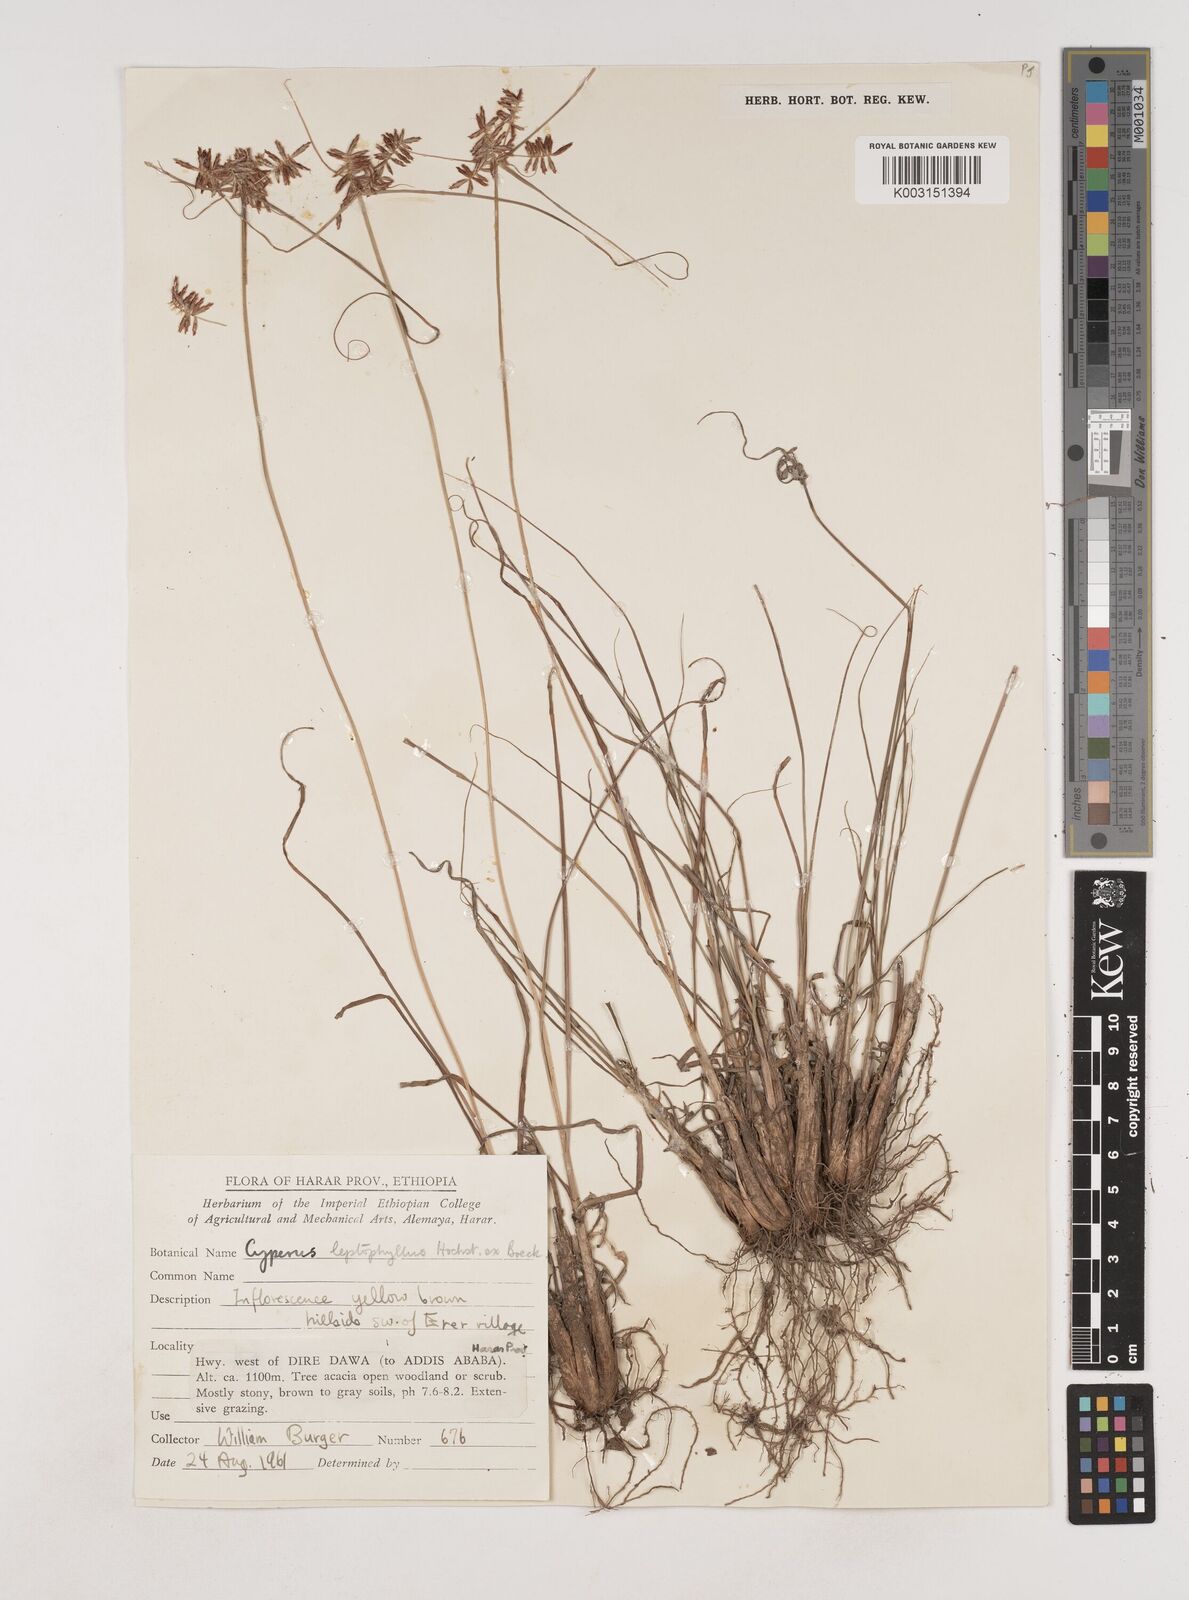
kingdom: Plantae
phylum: Tracheophyta
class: Liliopsida
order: Poales
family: Cyperaceae
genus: Cyperus
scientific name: Cyperus amauropus
